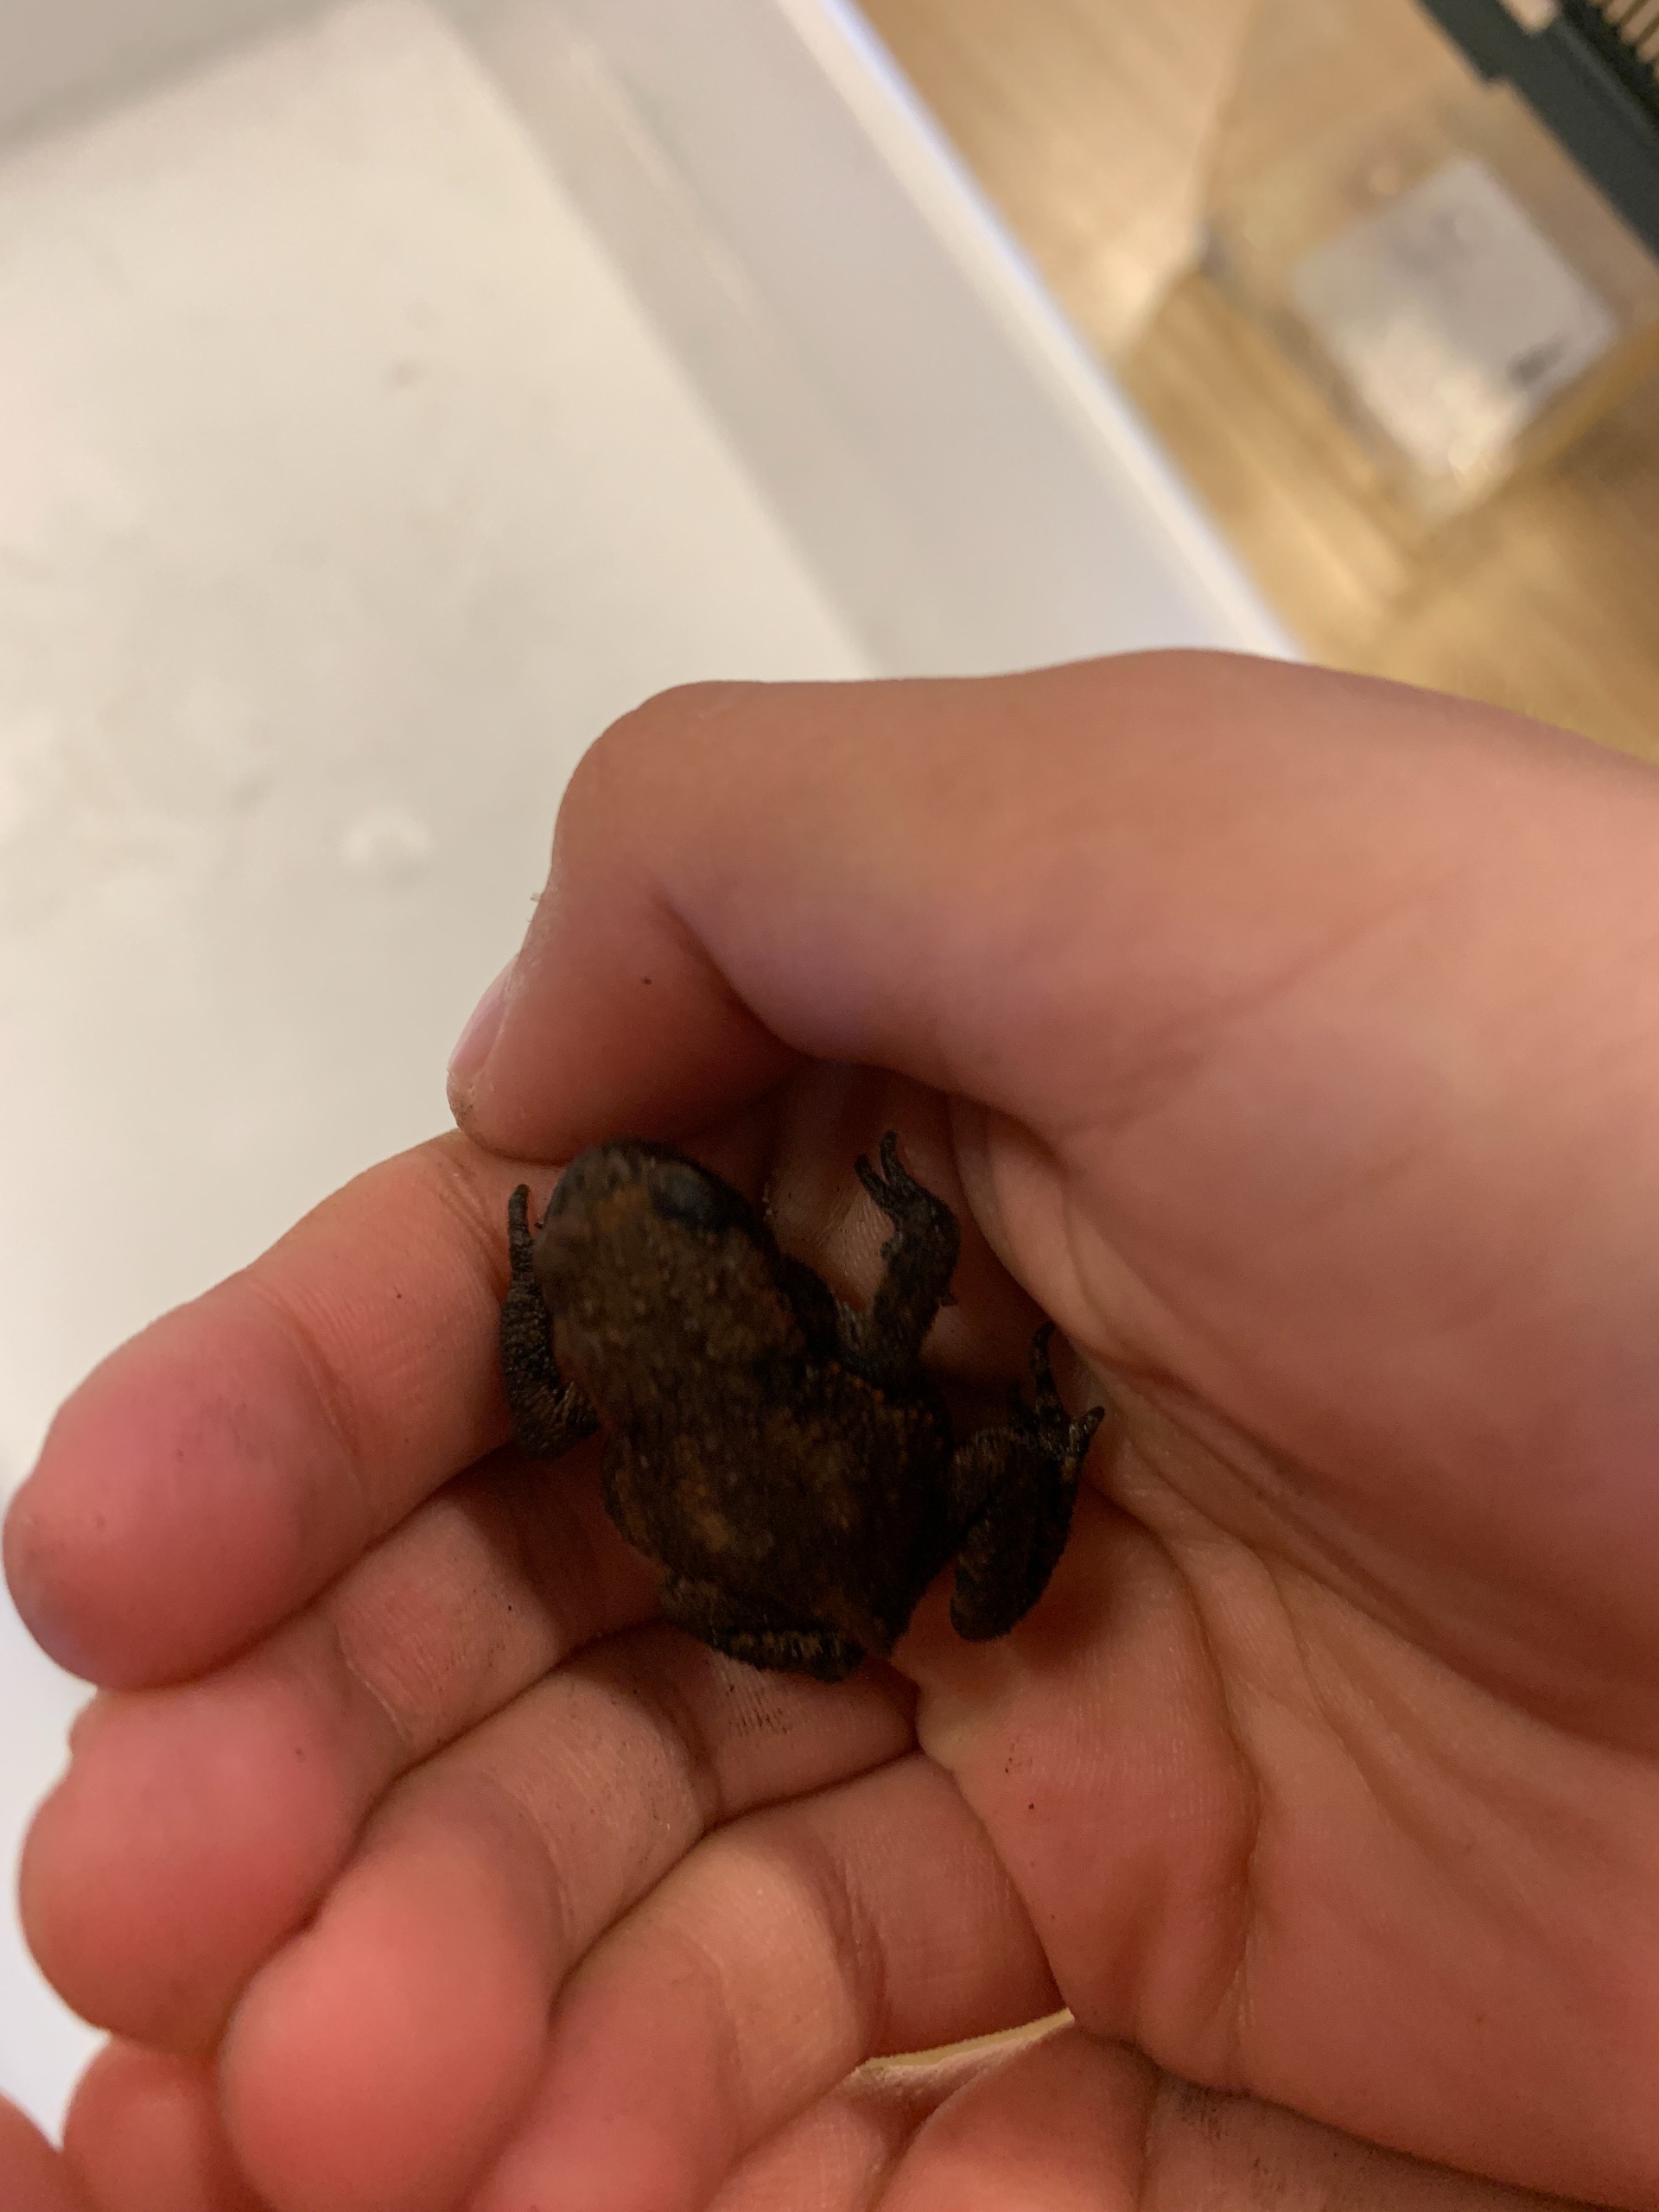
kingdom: Animalia
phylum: Chordata
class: Amphibia
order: Anura
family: Bufonidae
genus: Bufo
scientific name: Bufo bufo
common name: Skrubtudse
